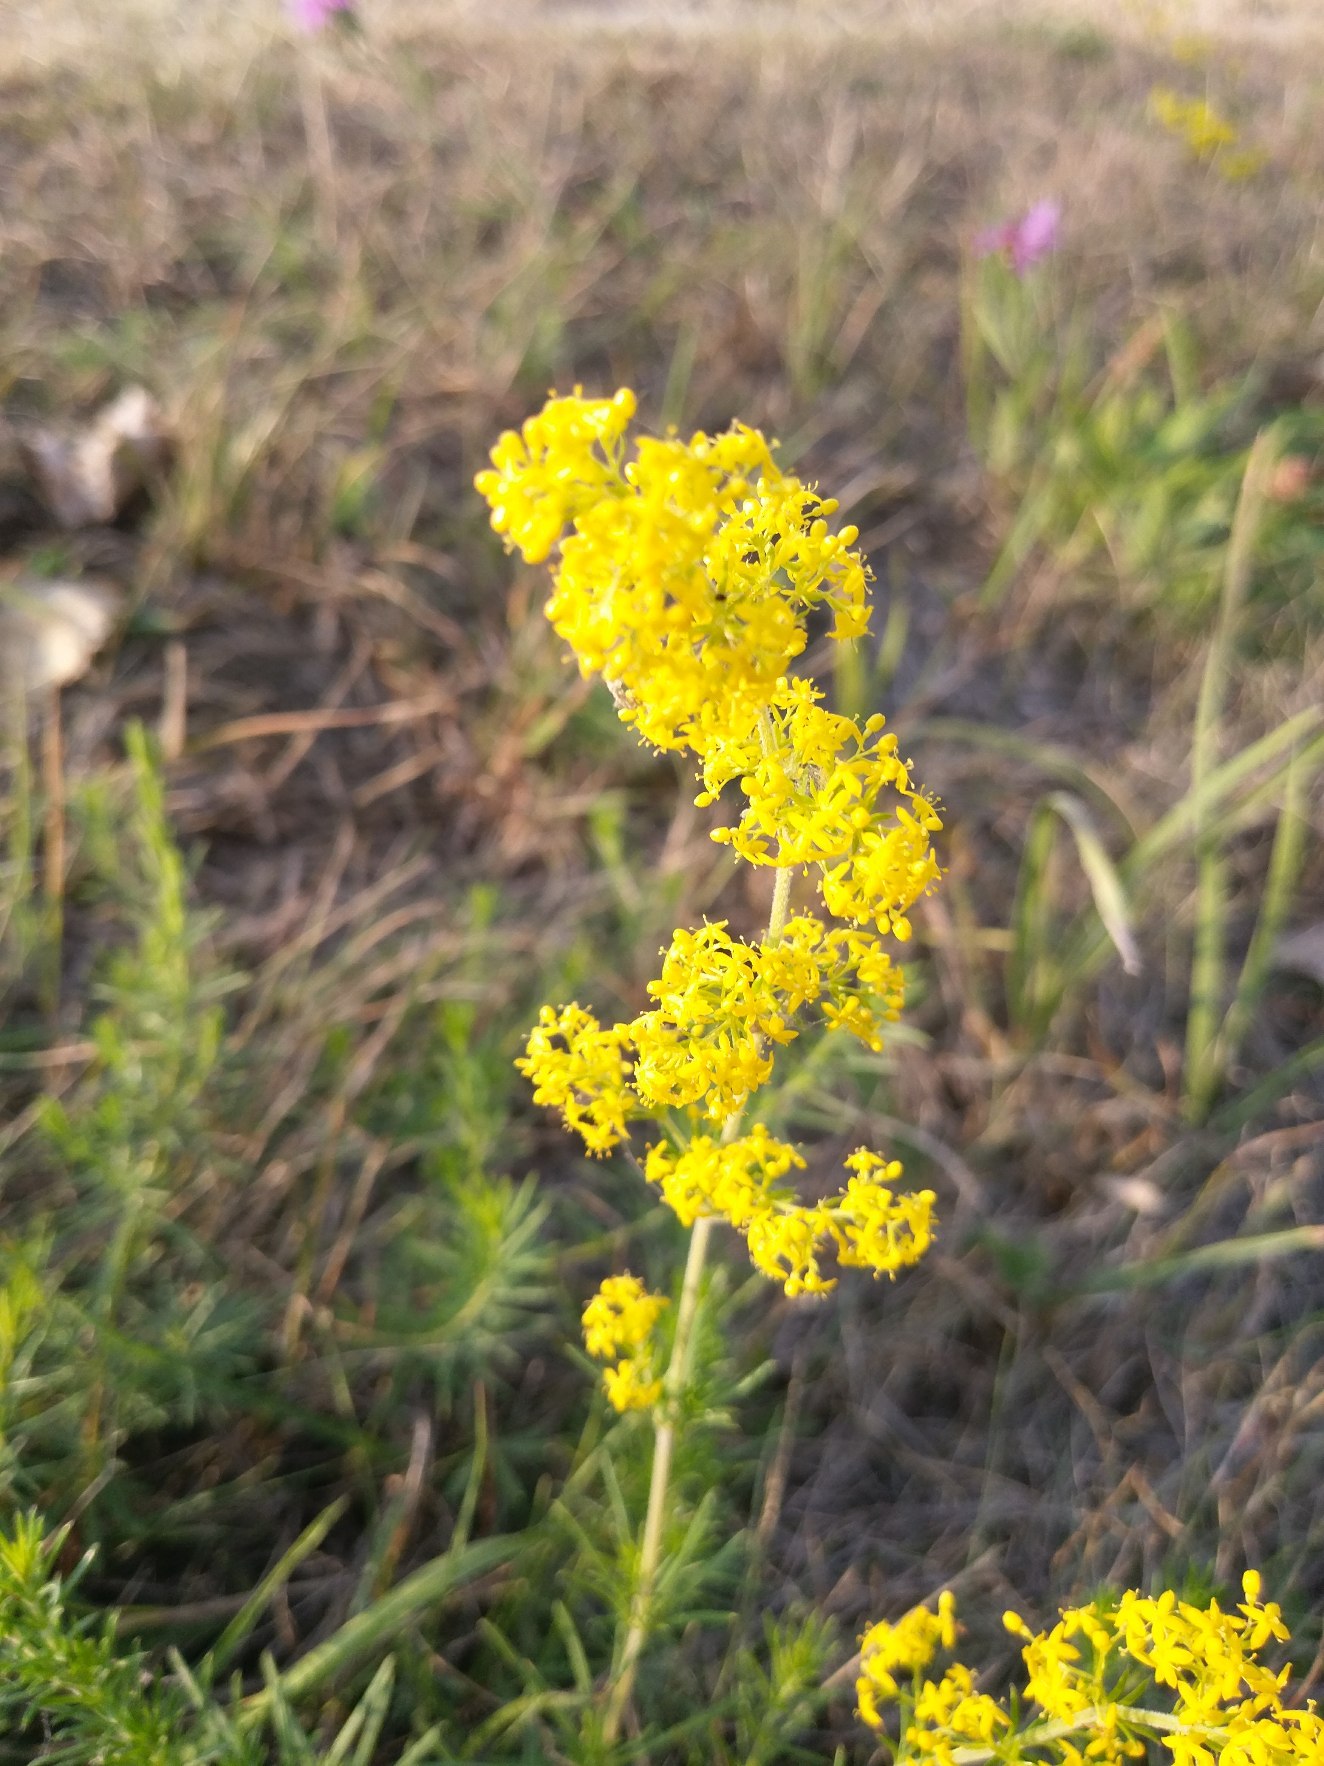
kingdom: Plantae
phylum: Tracheophyta
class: Magnoliopsida
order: Gentianales
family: Rubiaceae
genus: Galium
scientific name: Galium verum
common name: Gul snerre
